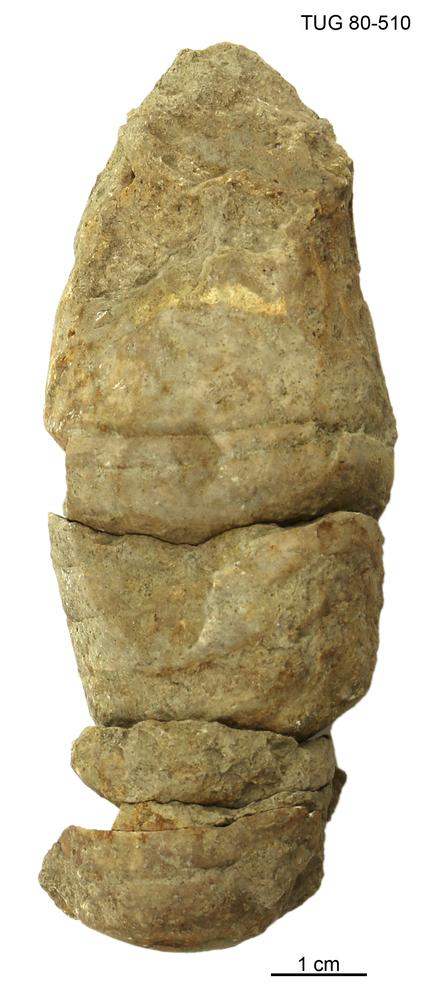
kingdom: Animalia
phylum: Mollusca
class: Cephalopoda
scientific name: Cephalopoda
